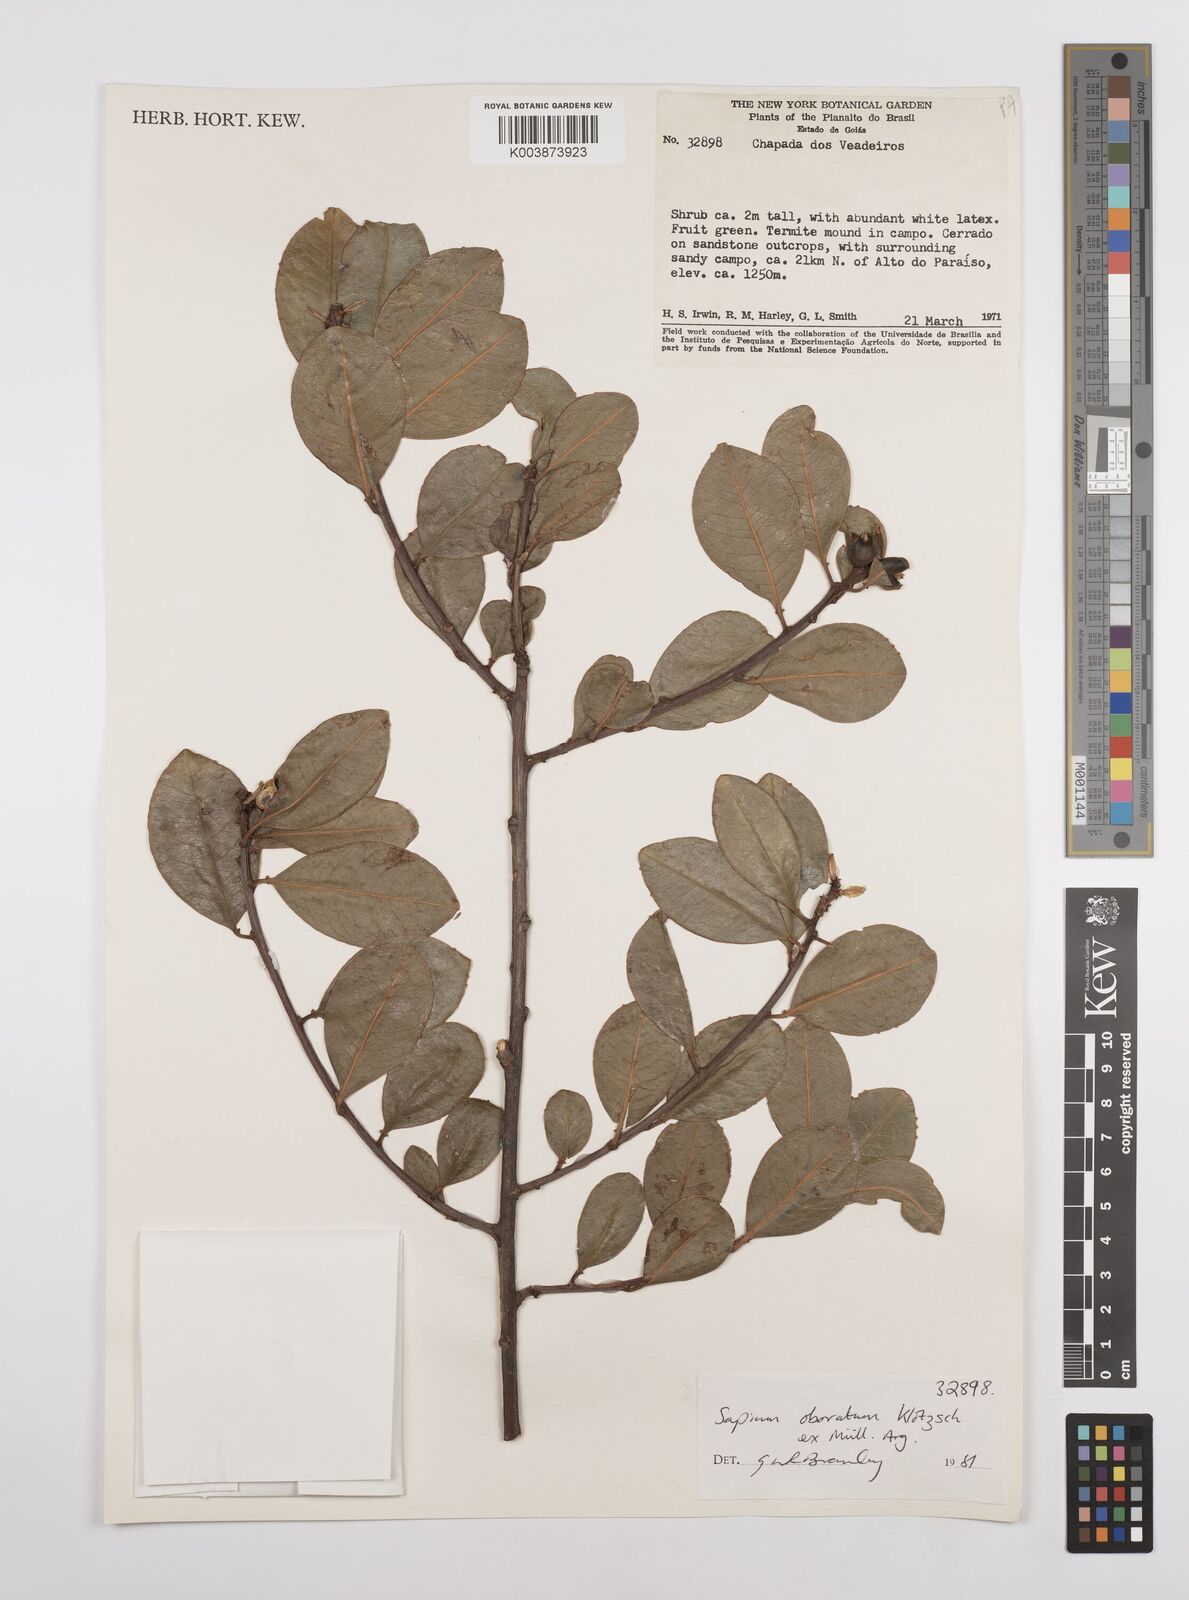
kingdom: Plantae
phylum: Tracheophyta
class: Magnoliopsida
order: Malpighiales
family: Euphorbiaceae
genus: Sapium
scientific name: Sapium obovatum
